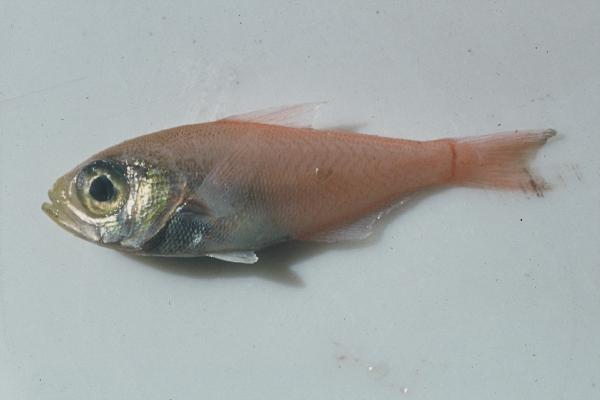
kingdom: Animalia
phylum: Chordata
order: Perciformes
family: Pempheridae
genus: Parapriacanthus
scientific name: Parapriacanthus ransonneti
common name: Pigmy sweeper
